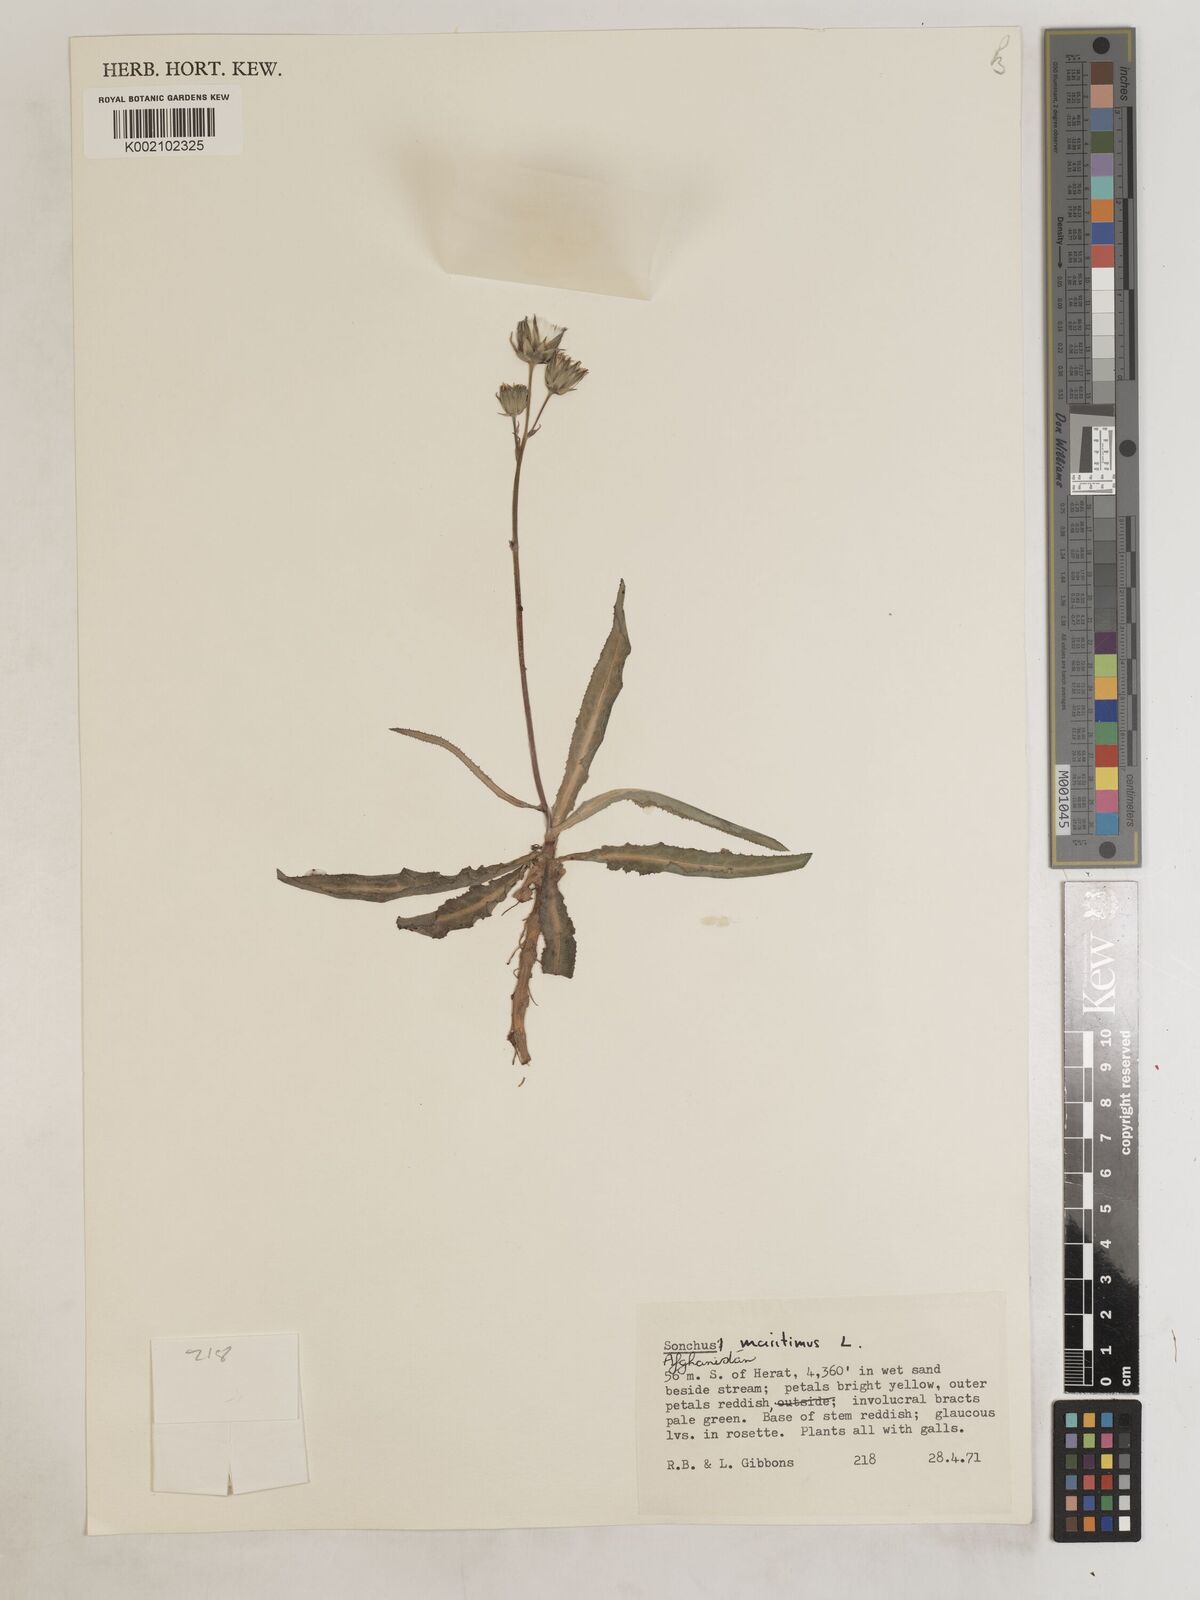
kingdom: Plantae
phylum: Tracheophyta
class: Magnoliopsida
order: Asterales
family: Asteraceae
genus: Sonchus
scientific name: Sonchus maritimus
